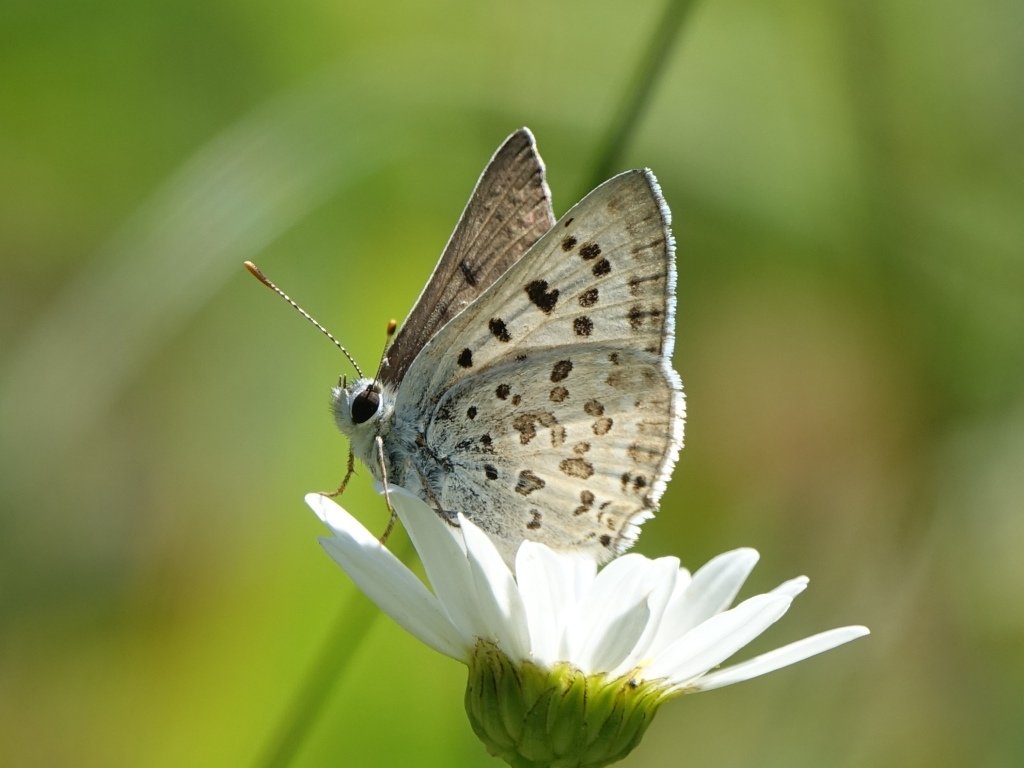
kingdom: Animalia
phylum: Arthropoda
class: Insecta
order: Lepidoptera
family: Lycaenidae
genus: Lycaena
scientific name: Lycaena editha
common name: Edith's Copper
